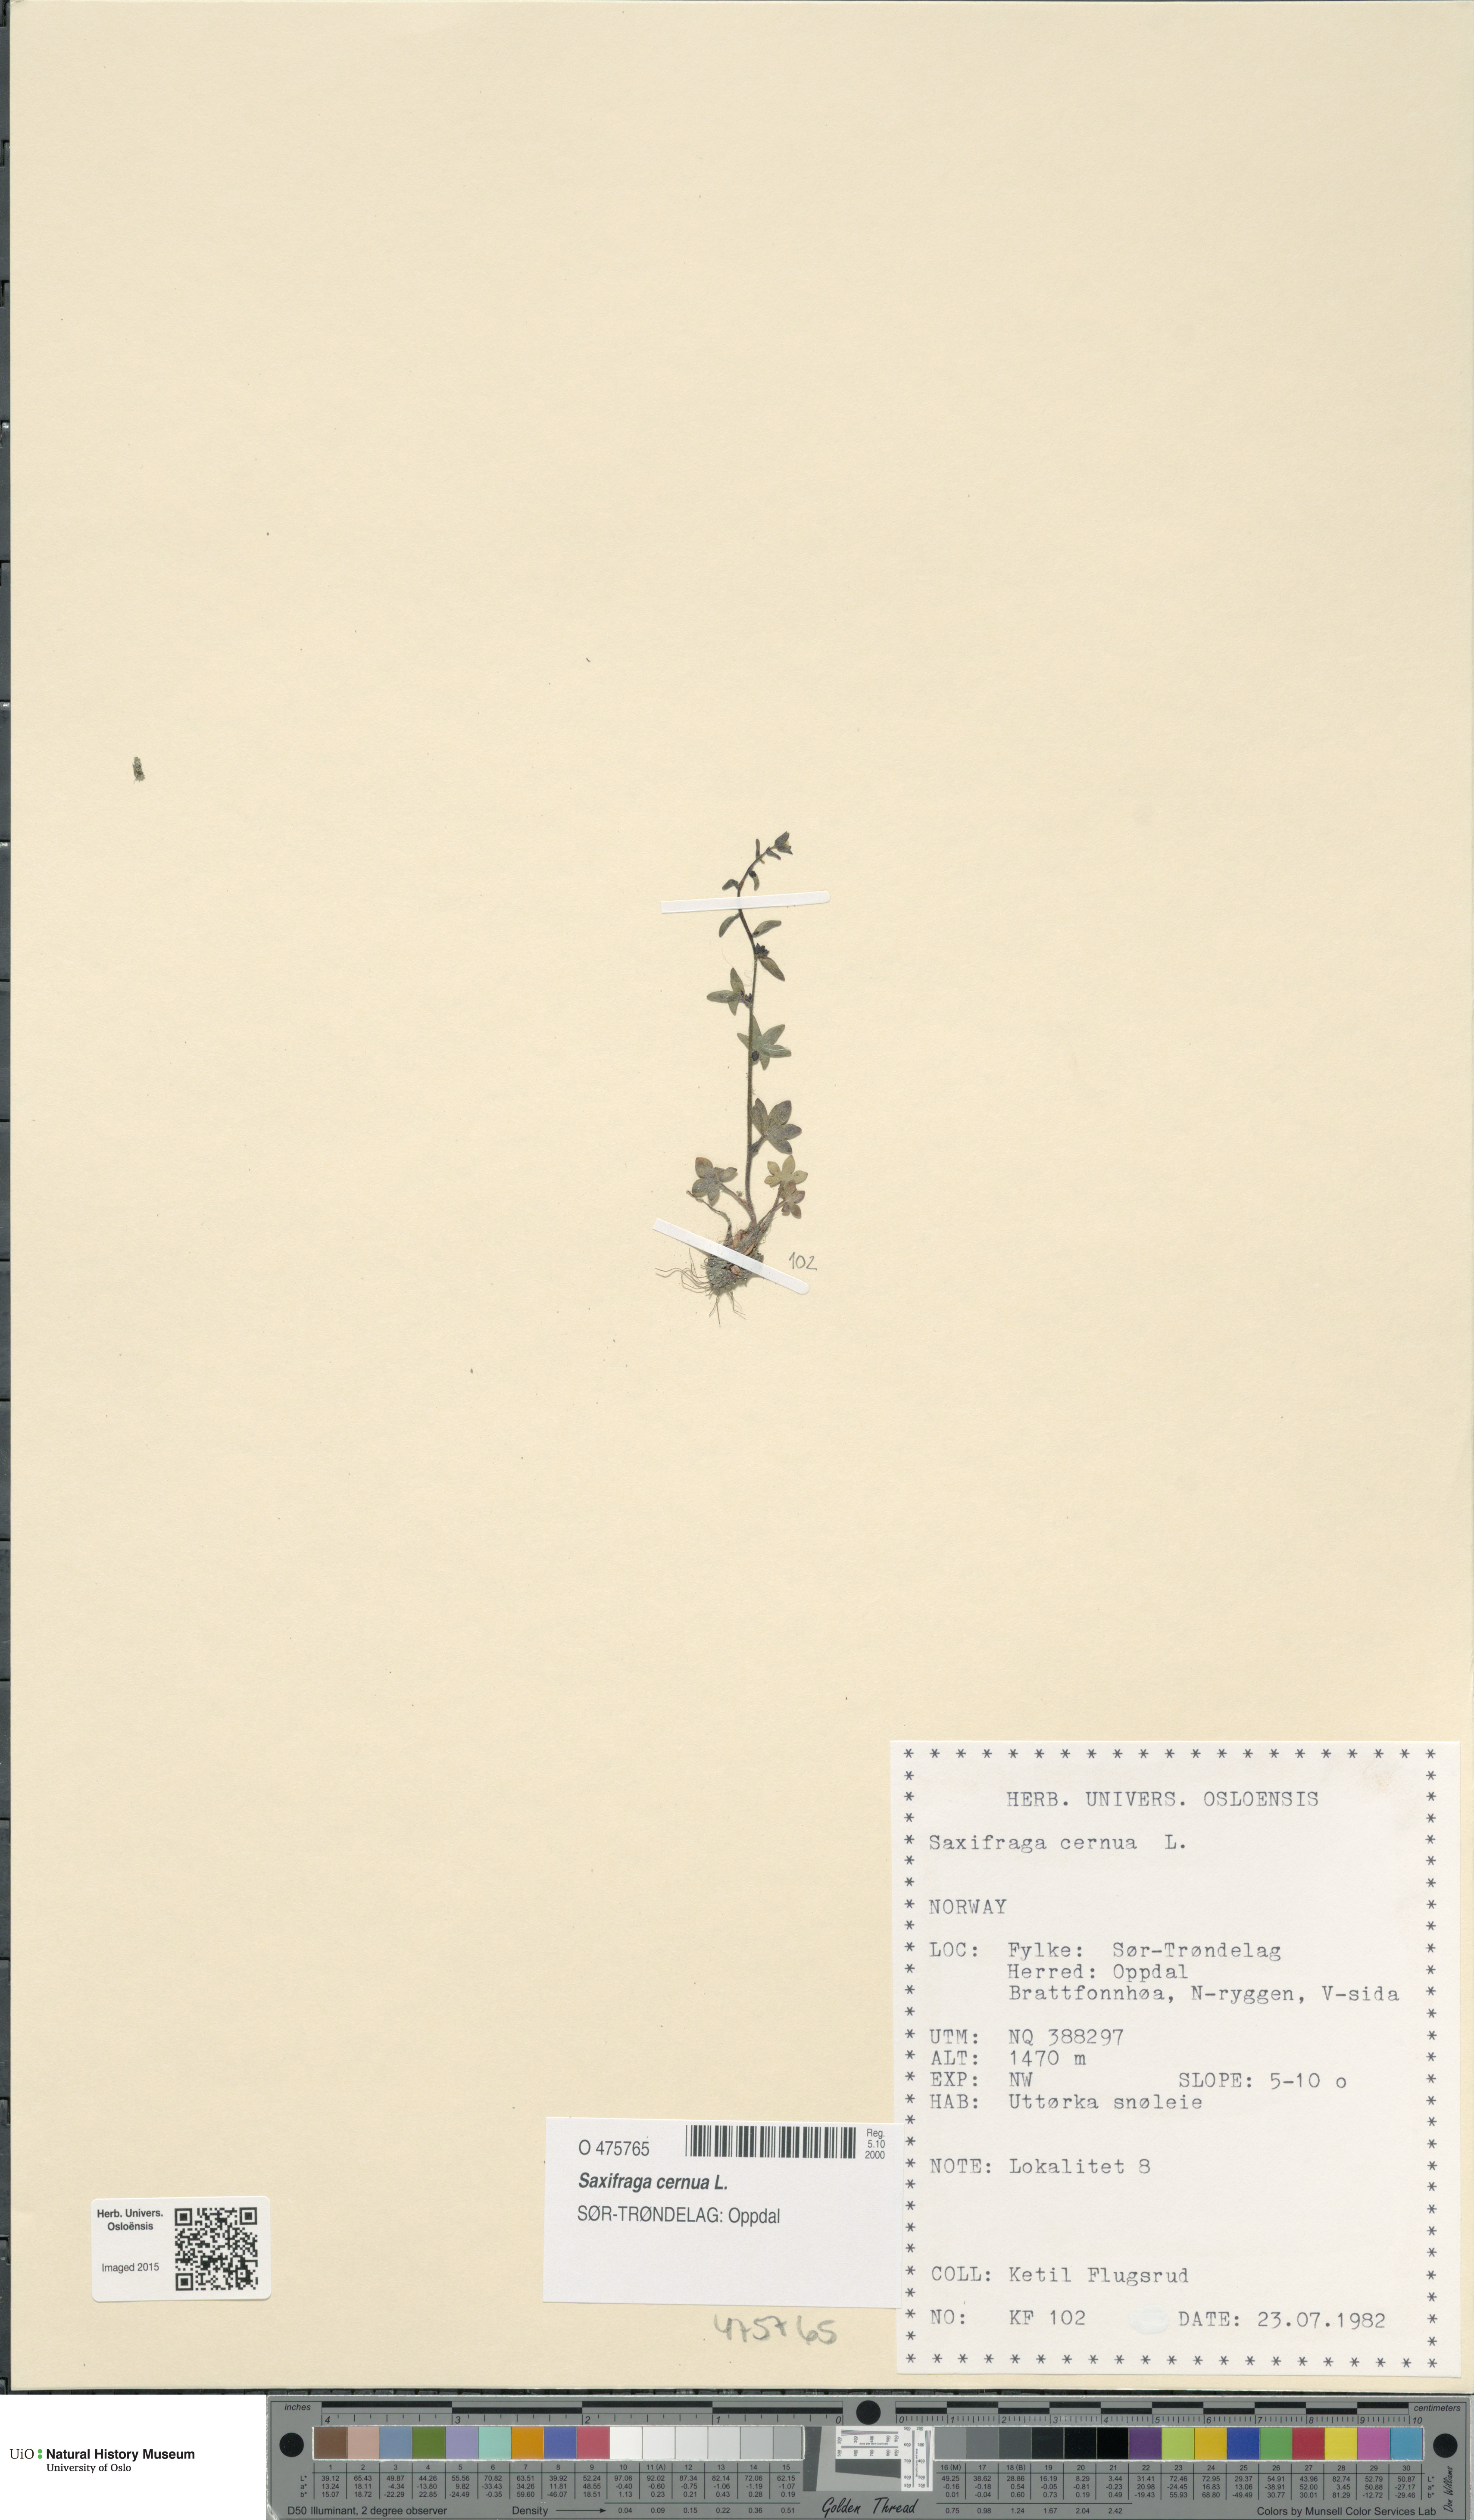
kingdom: Plantae
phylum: Tracheophyta
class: Magnoliopsida
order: Saxifragales
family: Saxifragaceae
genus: Saxifraga
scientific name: Saxifraga cernua
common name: Drooping saxifrage
